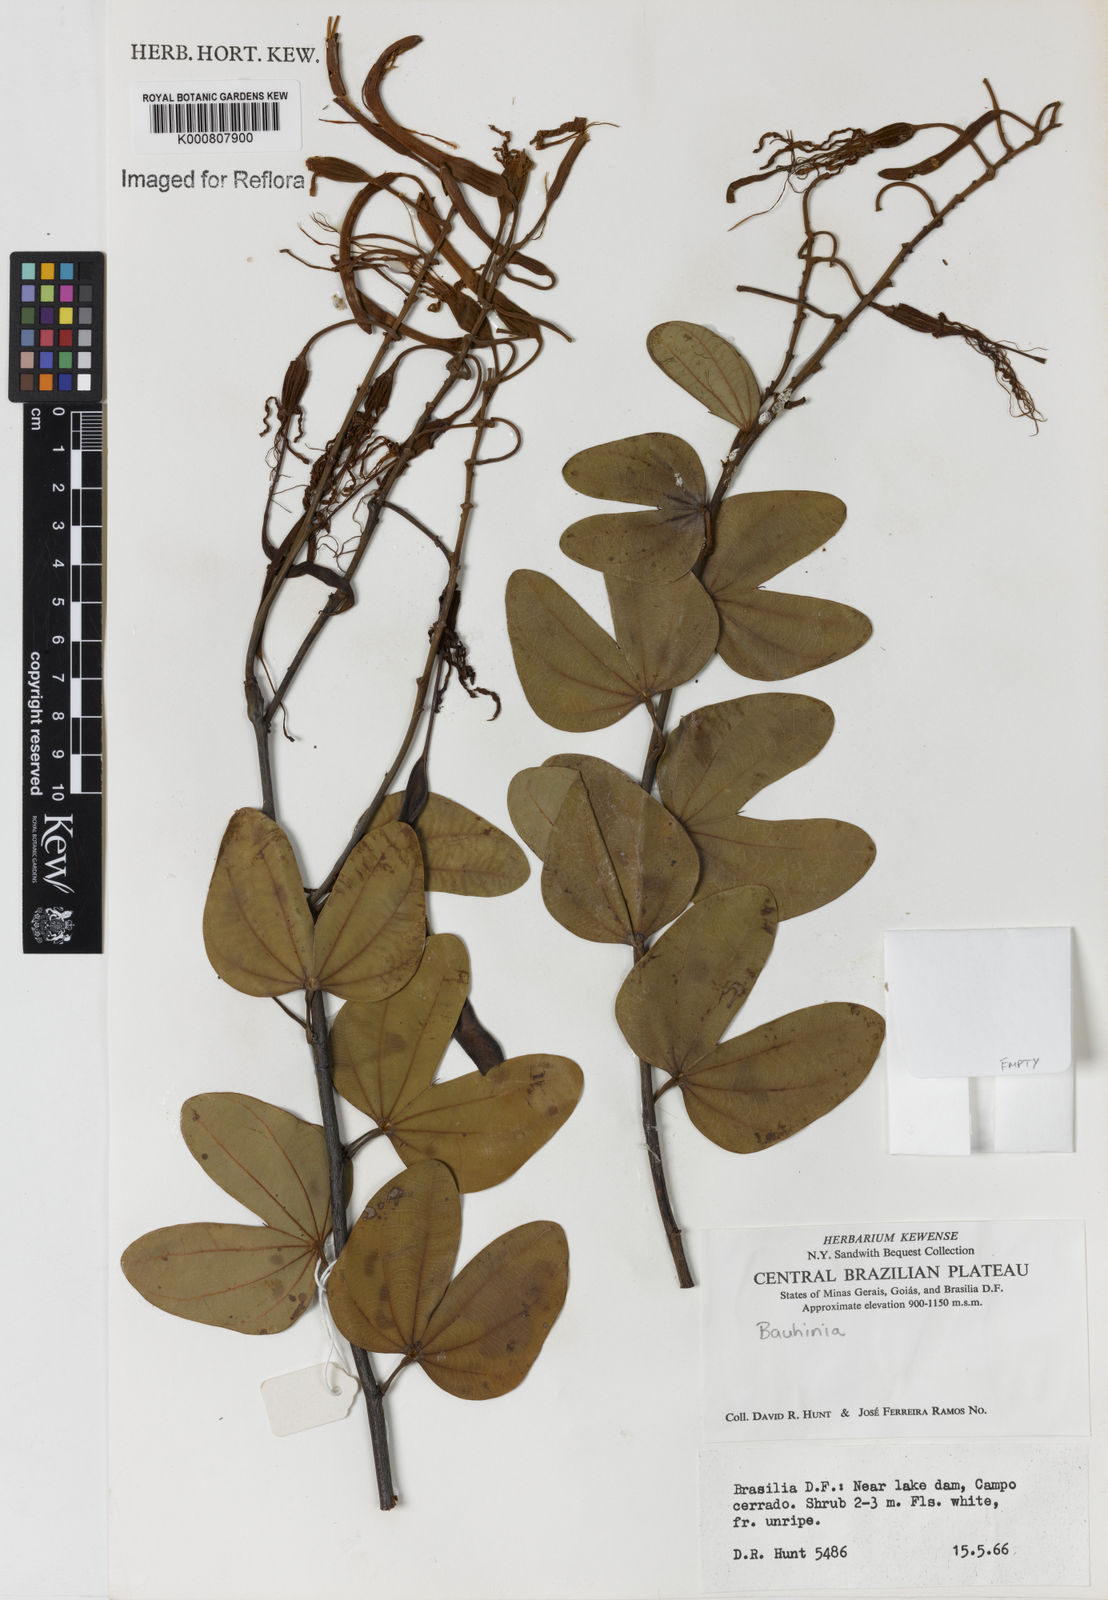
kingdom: Plantae
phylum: Tracheophyta
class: Magnoliopsida
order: Fabales
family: Fabaceae
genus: Bauhinia
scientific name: Bauhinia
